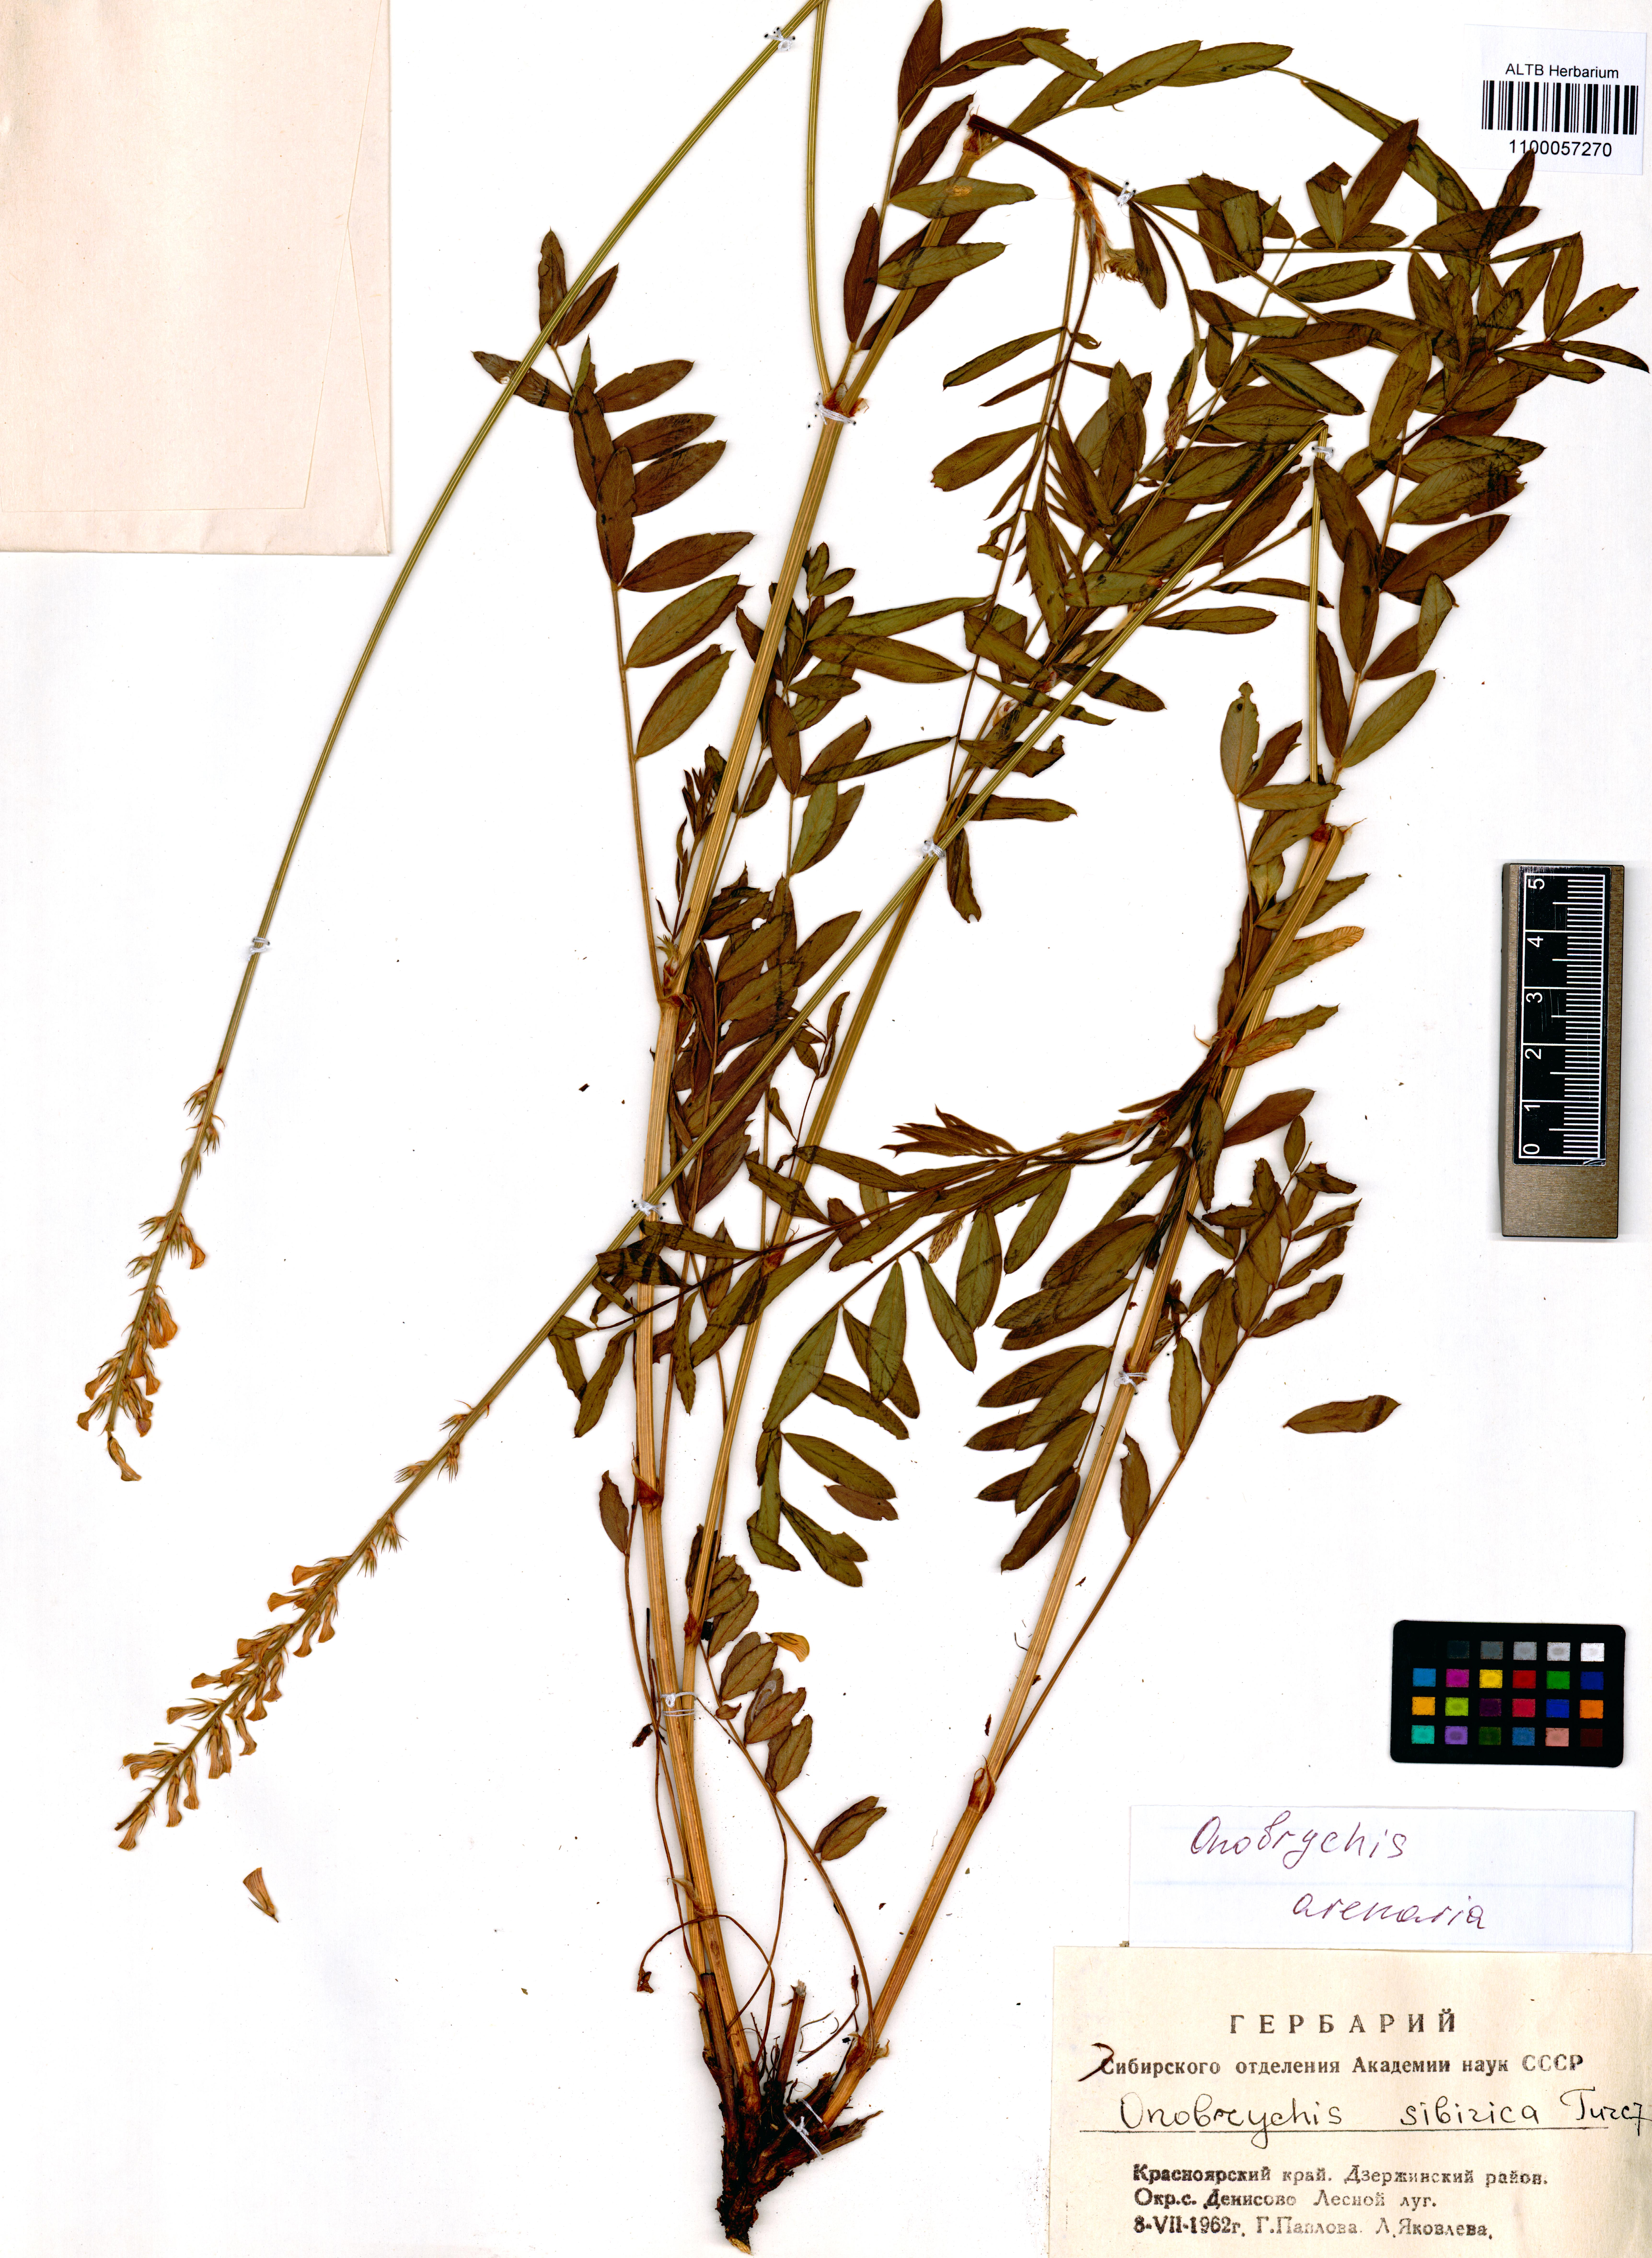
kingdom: Plantae
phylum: Tracheophyta
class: Magnoliopsida
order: Fabales
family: Fabaceae
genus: Onobrychis
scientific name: Onobrychis arenaria
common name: Sand esparcet
